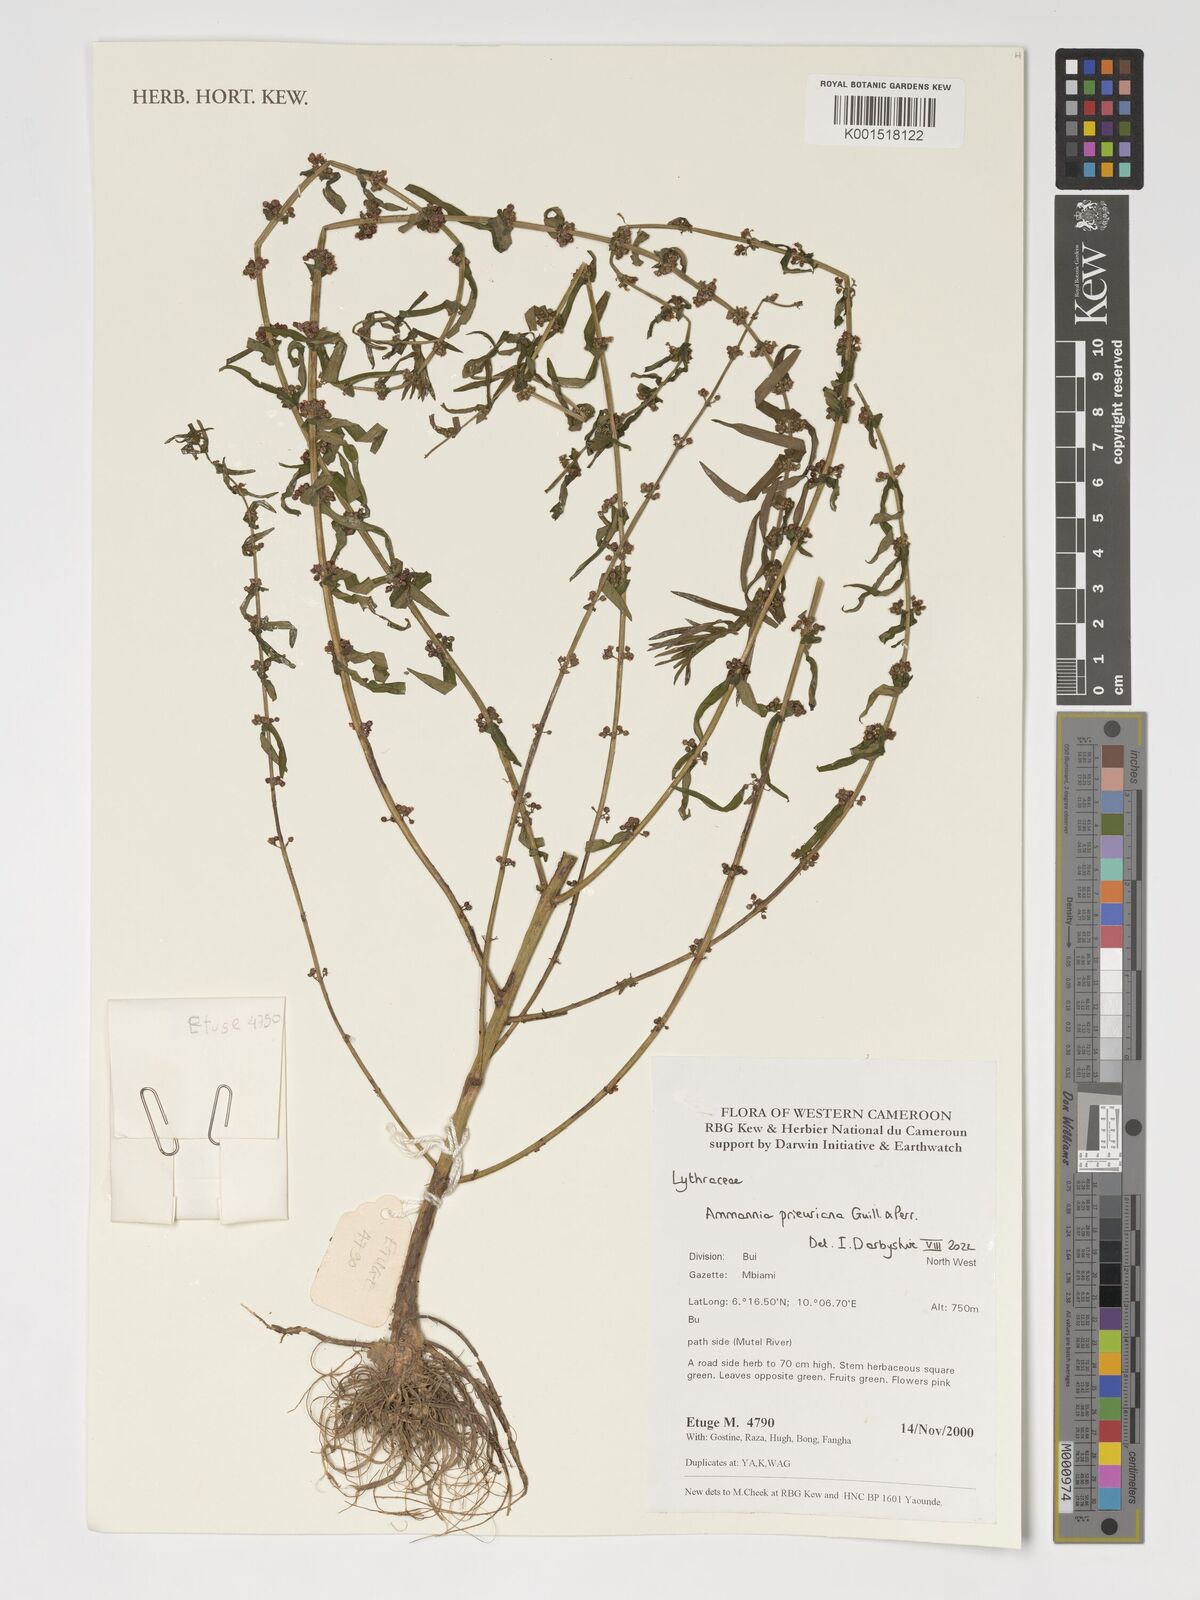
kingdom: Plantae
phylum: Tracheophyta
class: Magnoliopsida
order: Myrtales
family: Lythraceae
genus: Ammannia
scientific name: Ammannia prieuriana
